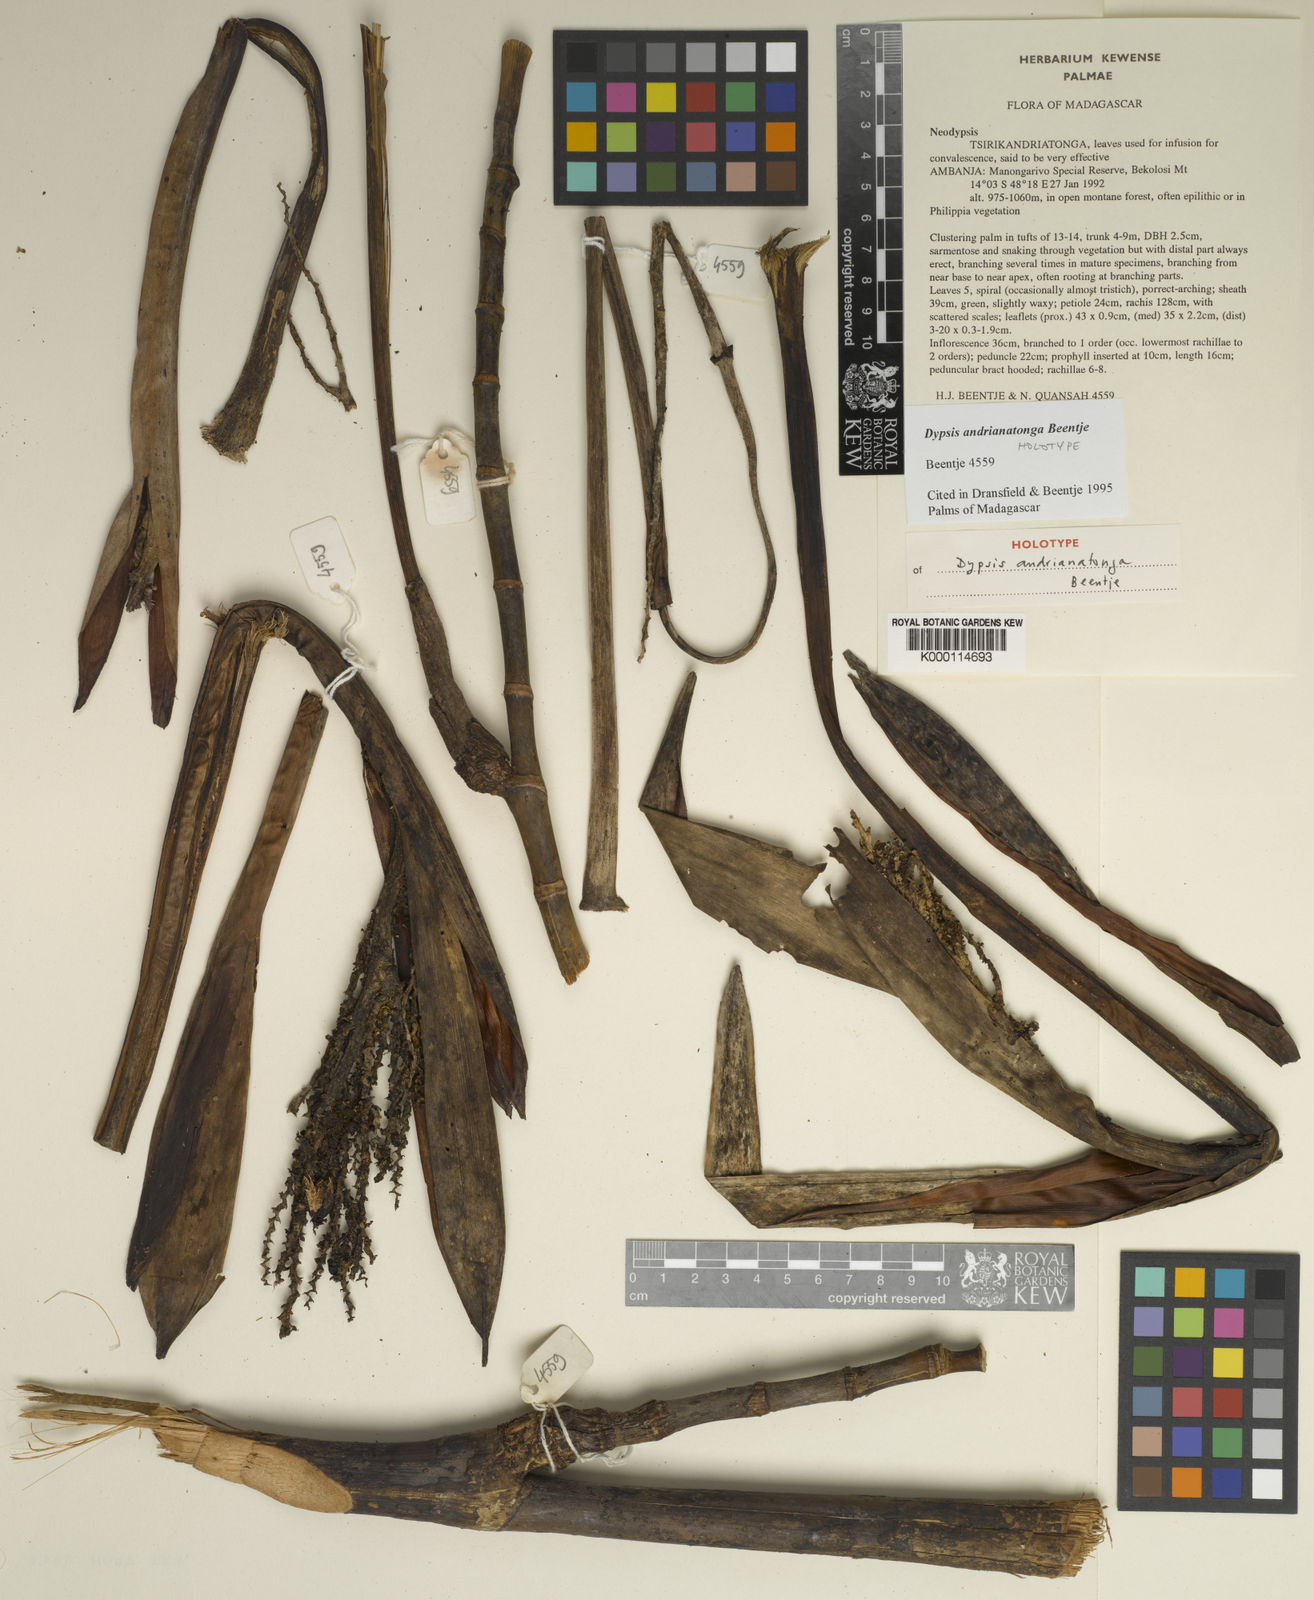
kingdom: Plantae
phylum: Tracheophyta
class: Liliopsida
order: Arecales
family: Arecaceae
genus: Dypsis
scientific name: Dypsis andrianatonga
